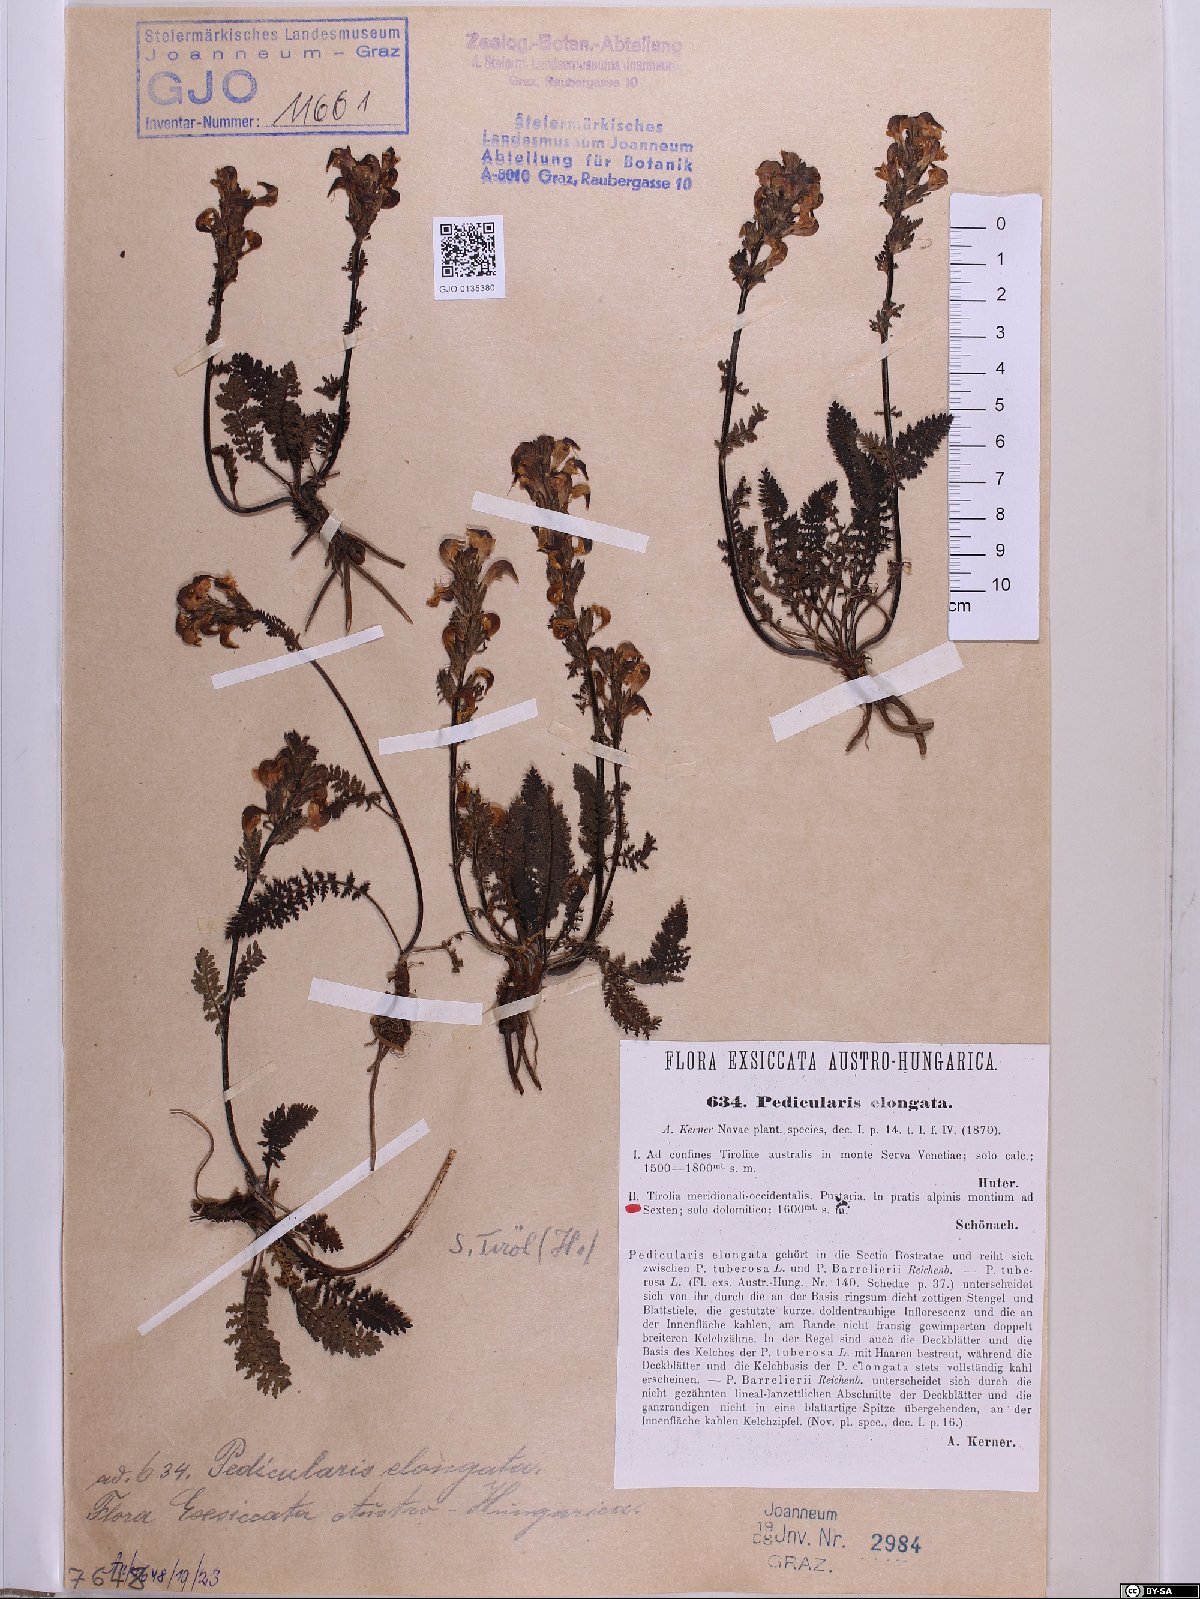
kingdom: Plantae
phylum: Tracheophyta
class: Magnoliopsida
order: Lamiales
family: Orobanchaceae
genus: Pedicularis
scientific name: Pedicularis elongata
